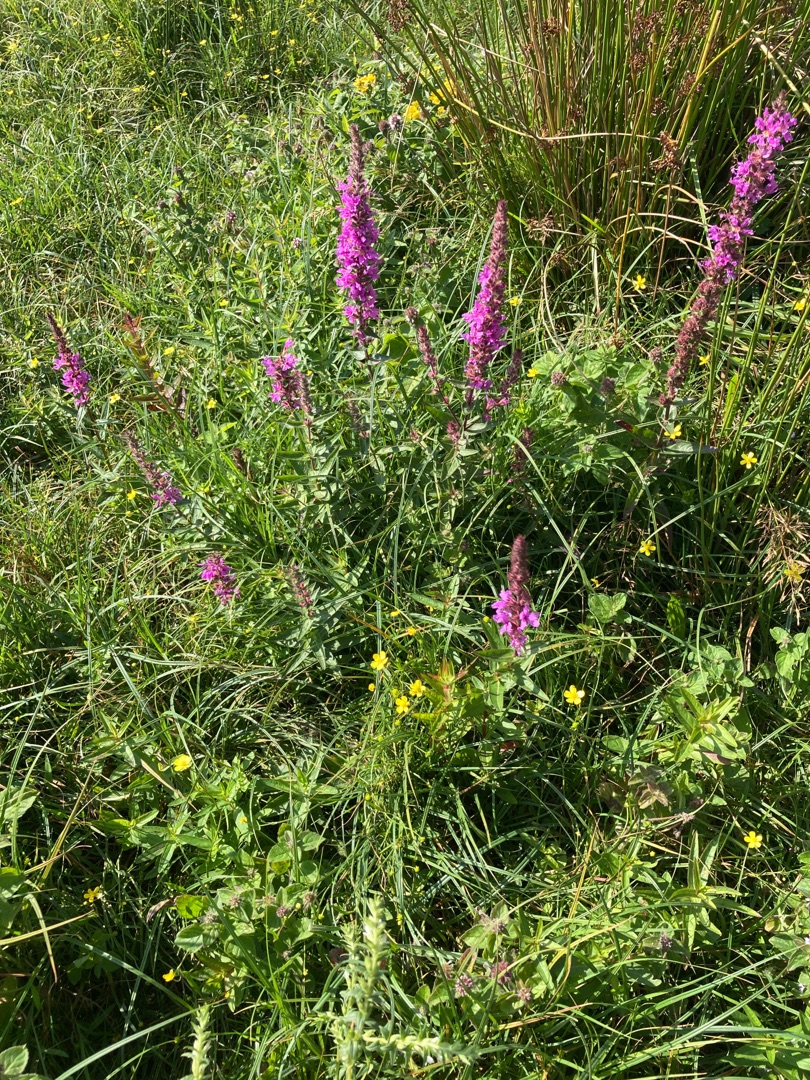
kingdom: Plantae
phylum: Tracheophyta
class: Magnoliopsida
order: Myrtales
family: Lythraceae
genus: Lythrum
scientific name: Lythrum salicaria
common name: Kattehale
